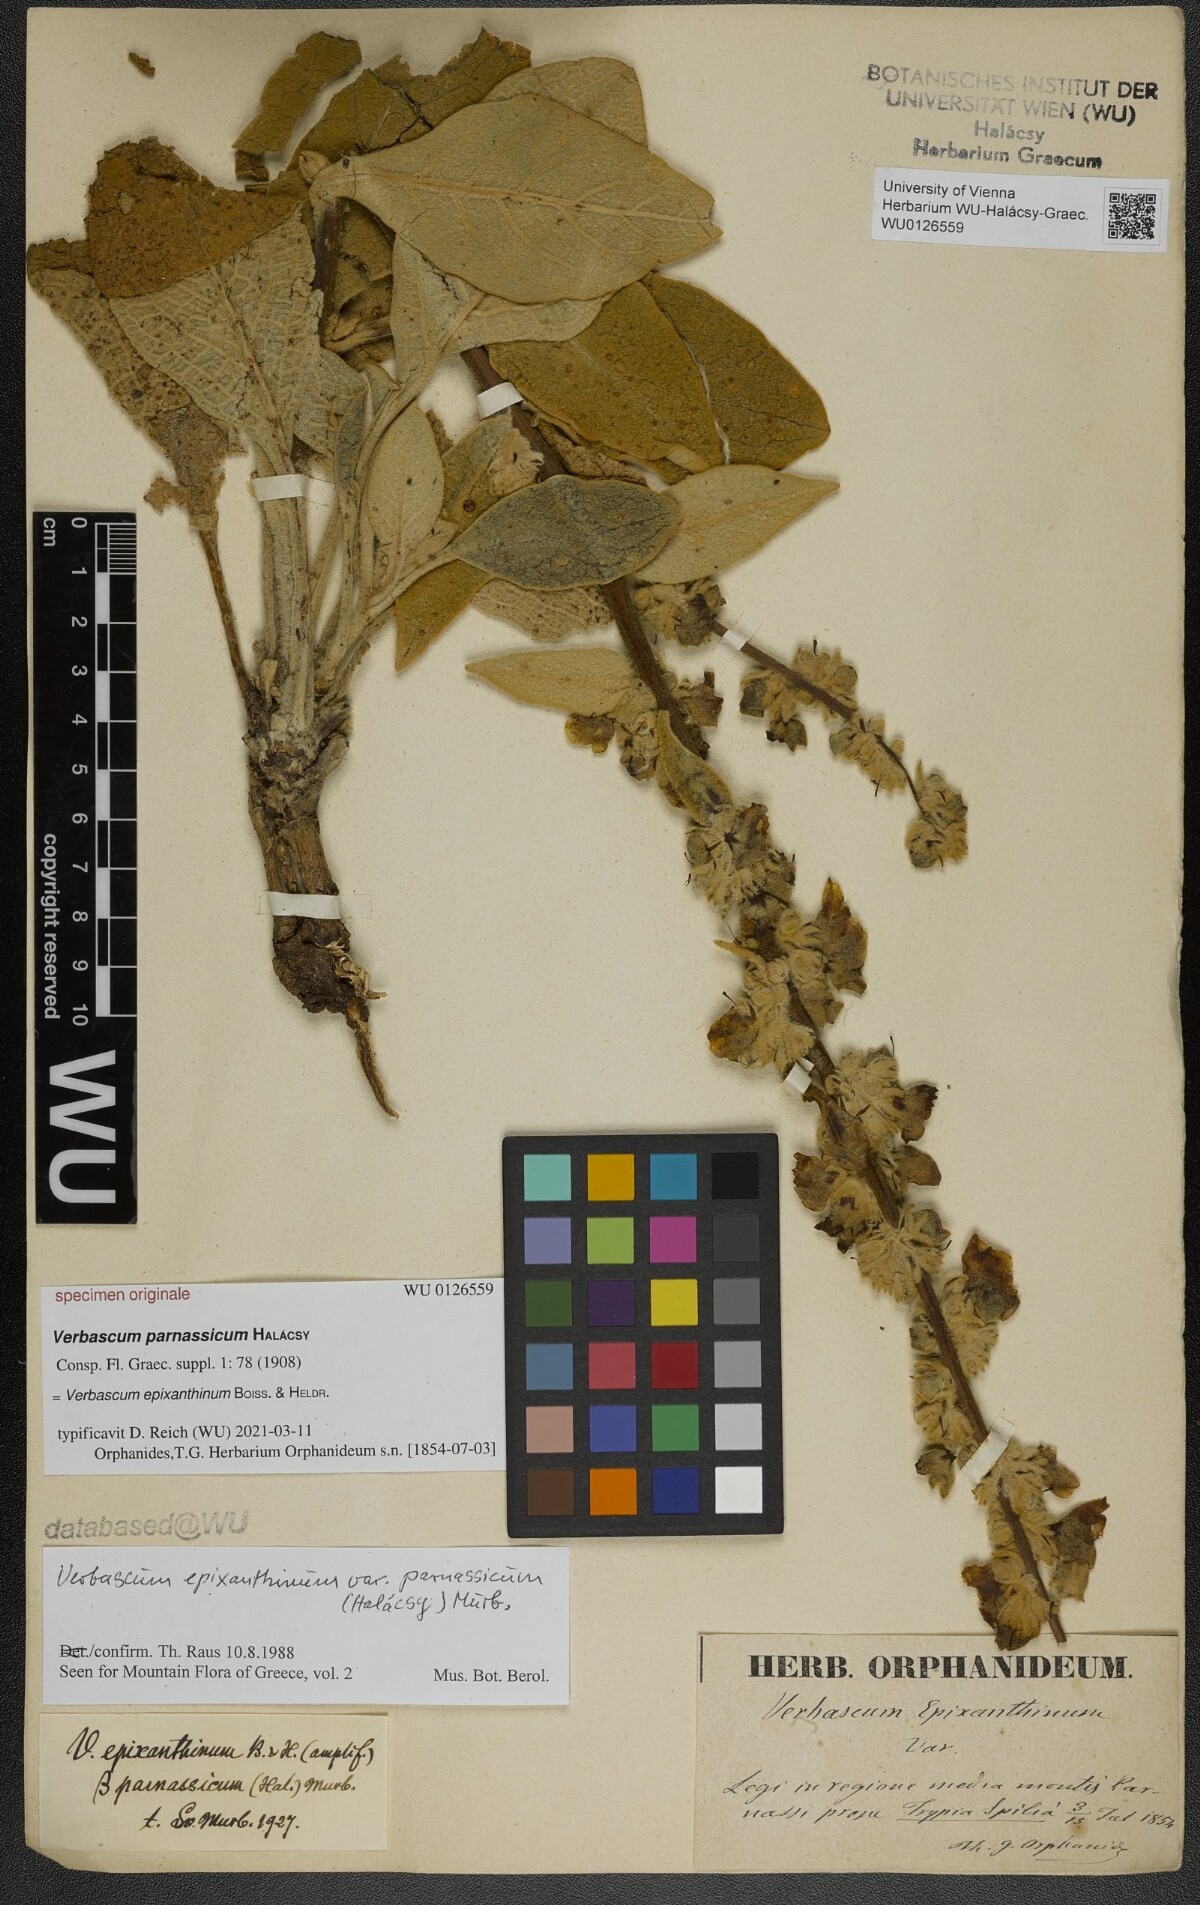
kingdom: Plantae
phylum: Tracheophyta
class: Magnoliopsida
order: Lamiales
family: Scrophulariaceae
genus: Verbascum
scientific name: Verbascum epixanthinum
